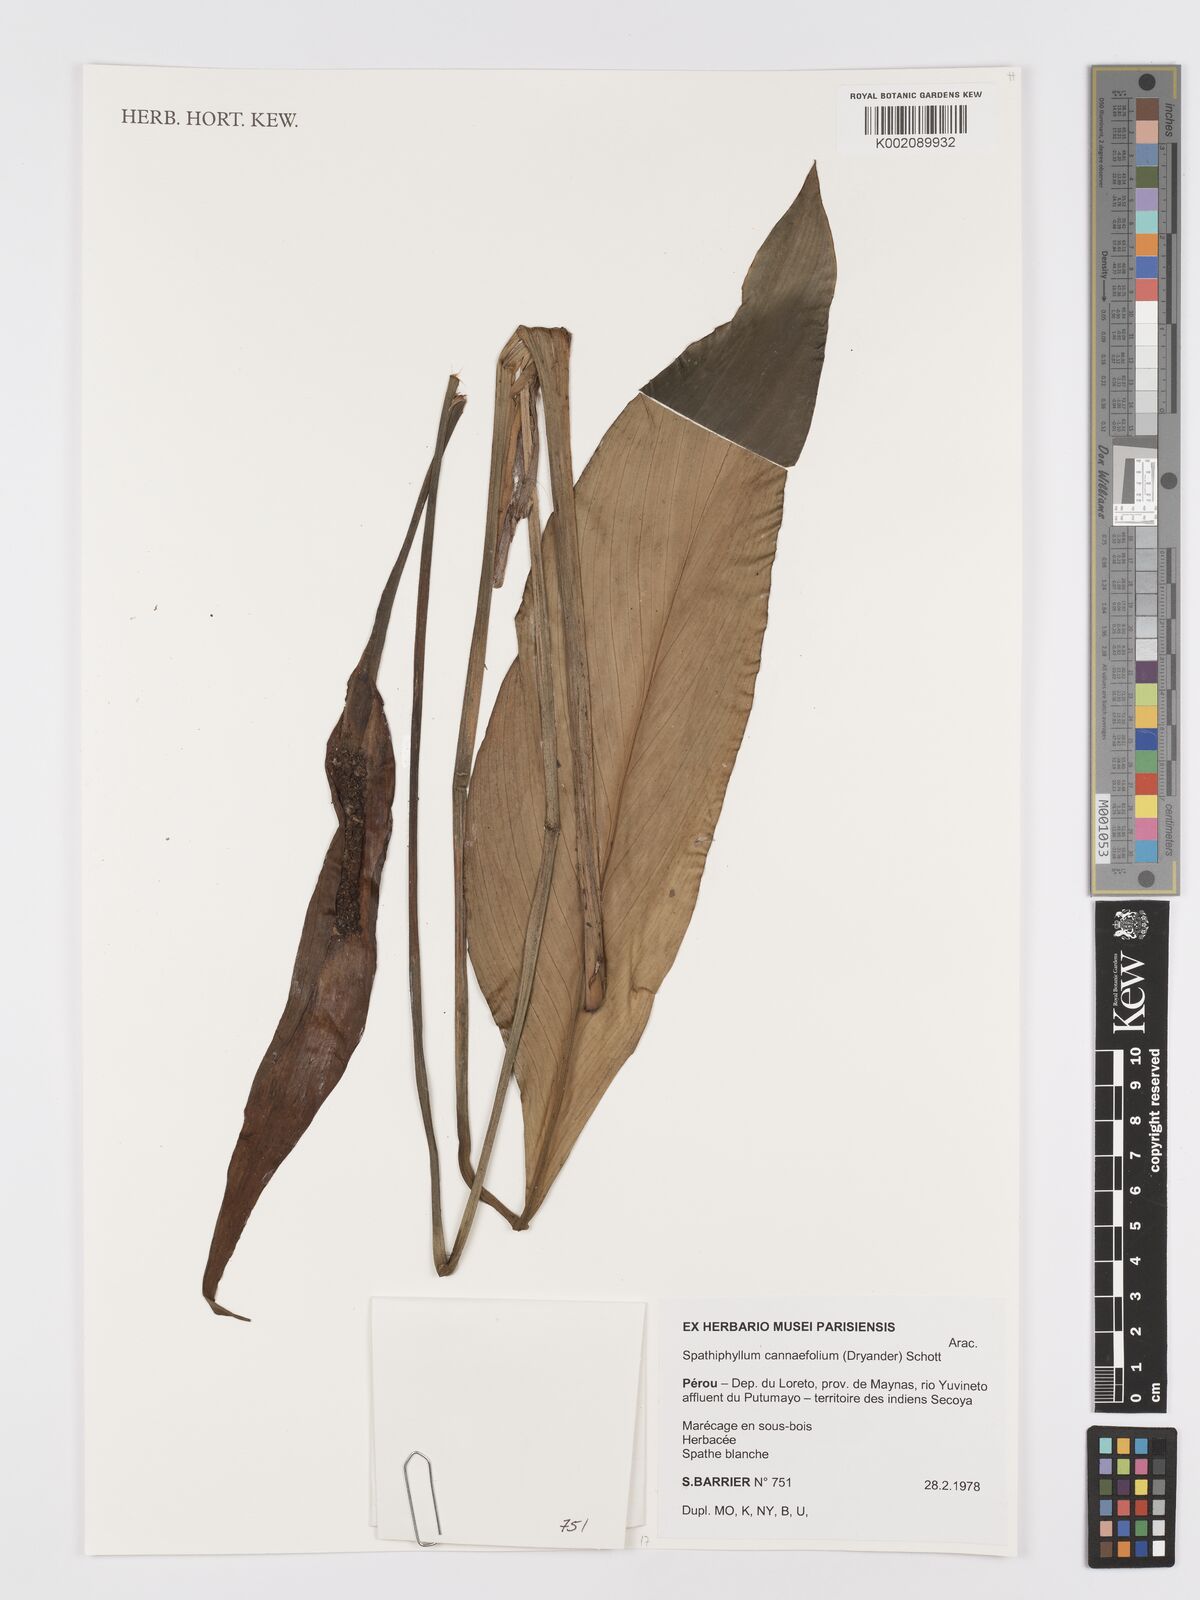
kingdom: Plantae
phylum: Tracheophyta
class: Liliopsida
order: Alismatales
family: Araceae
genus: Spathiphyllum
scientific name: Spathiphyllum cannifolium
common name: Spatheflower
